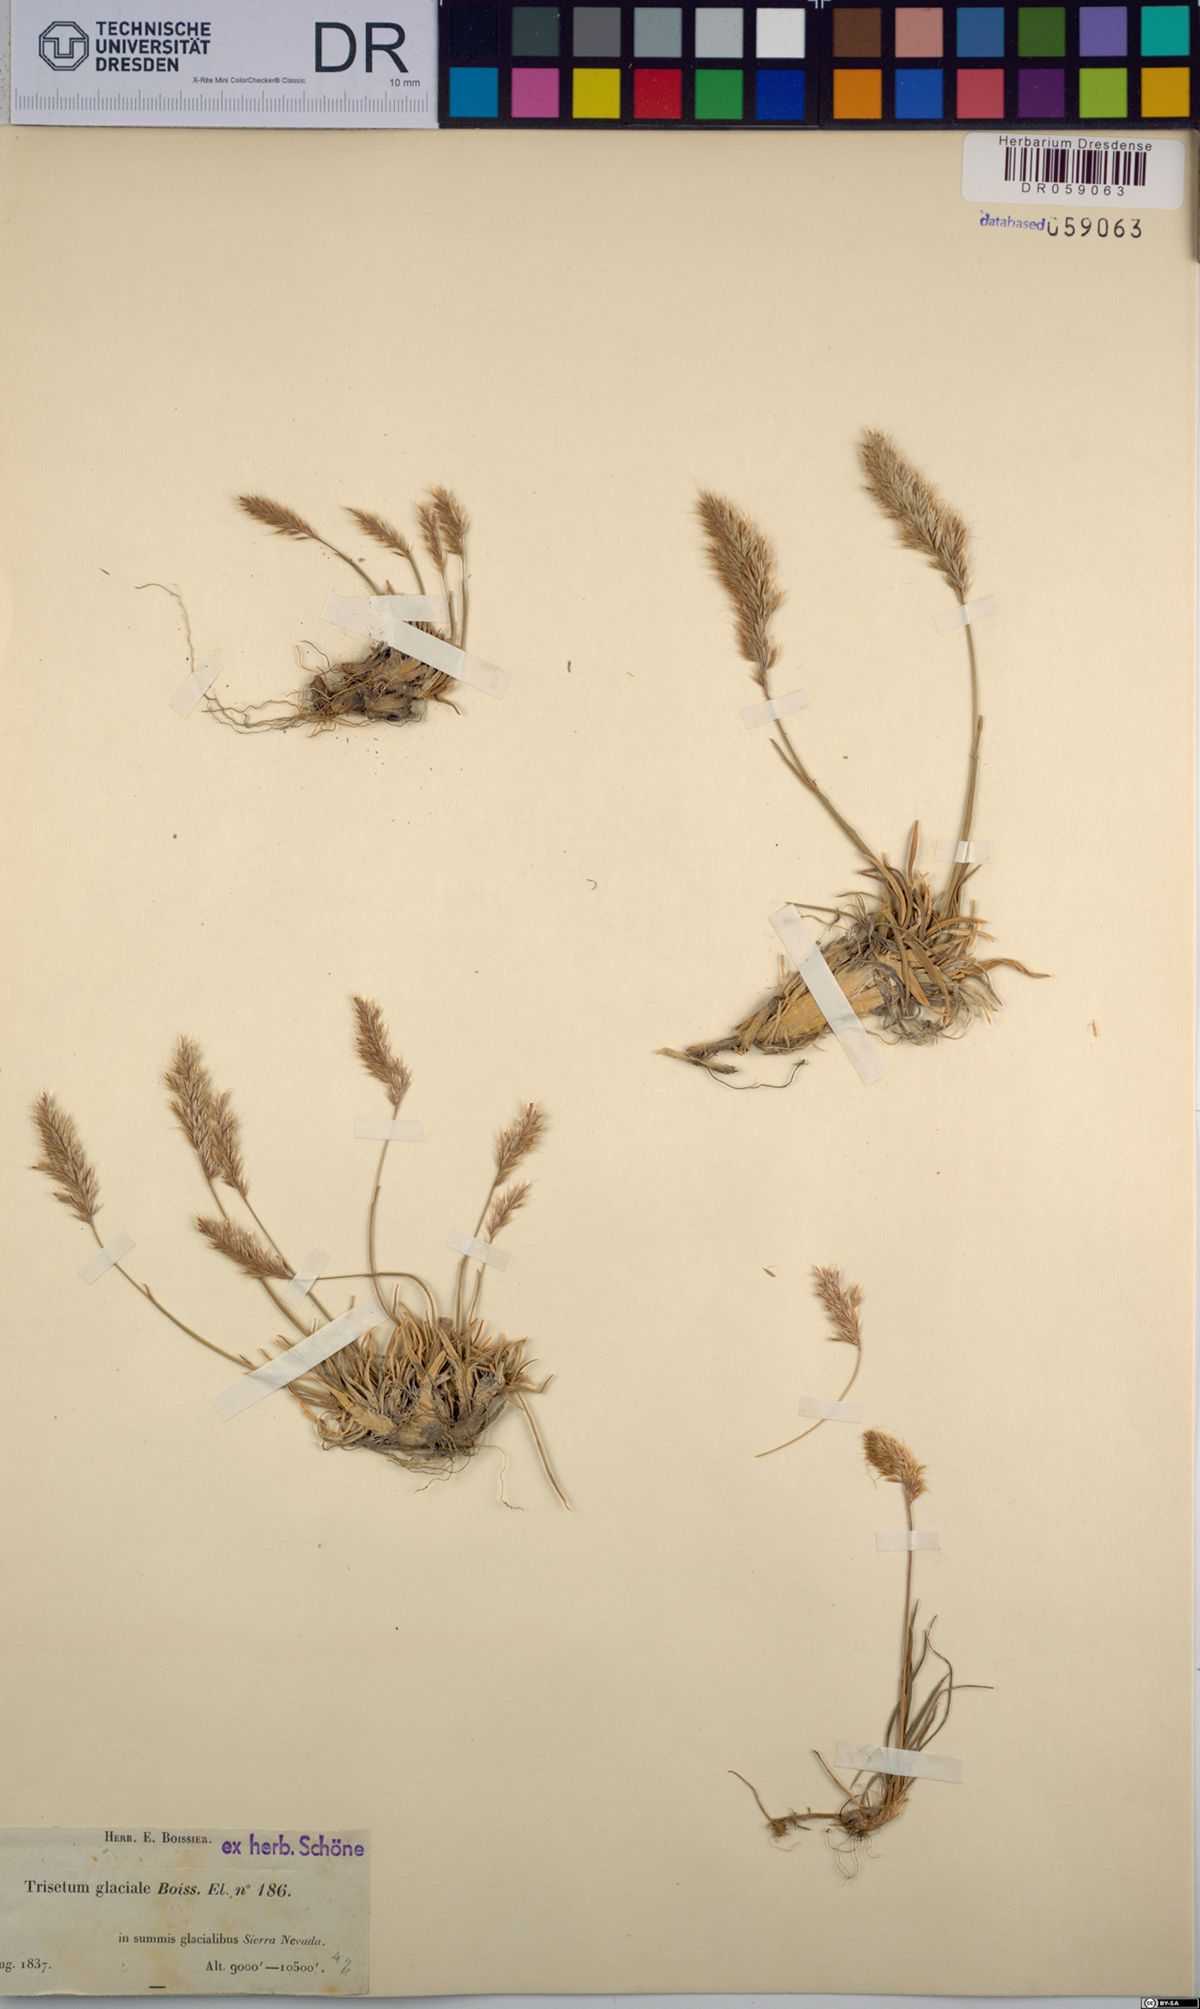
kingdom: Plantae
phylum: Tracheophyta
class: Liliopsida
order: Poales
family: Poaceae
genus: Acrospelion
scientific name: Acrospelion glaciale
